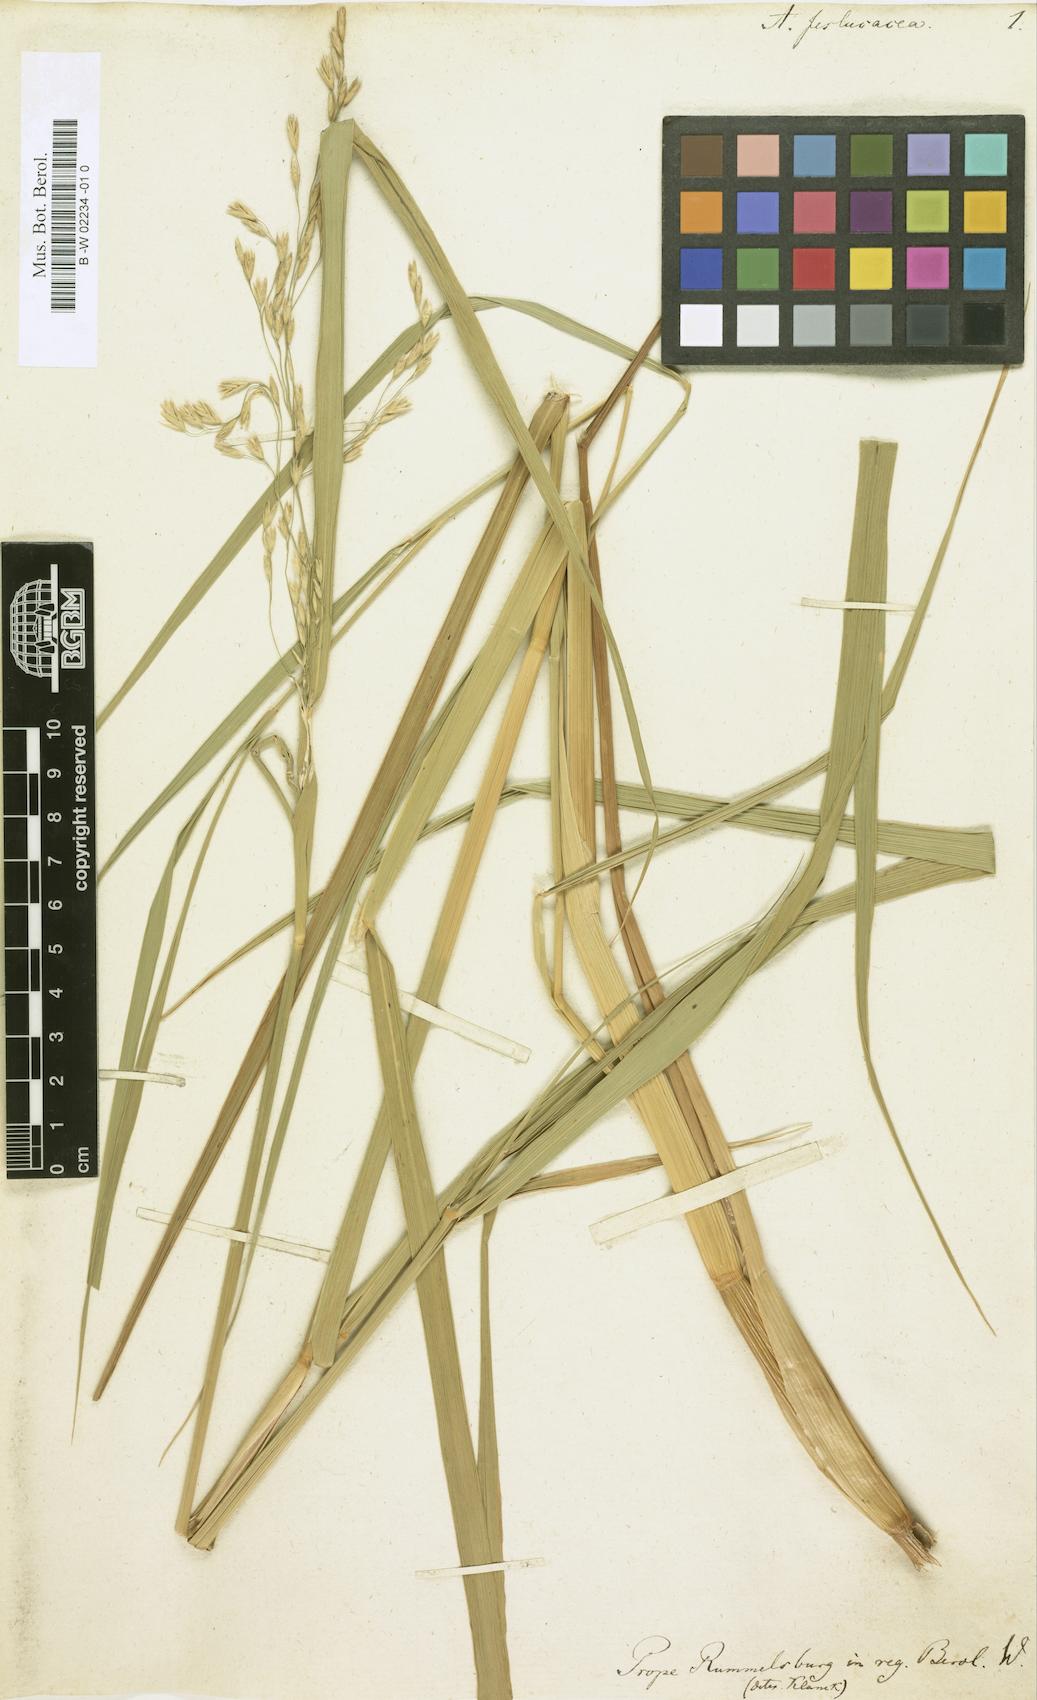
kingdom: Plantae
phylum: Tracheophyta
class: Liliopsida
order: Poales
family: Poaceae
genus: Scolochloa
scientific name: Scolochloa festucacea
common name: Common rivergrass
